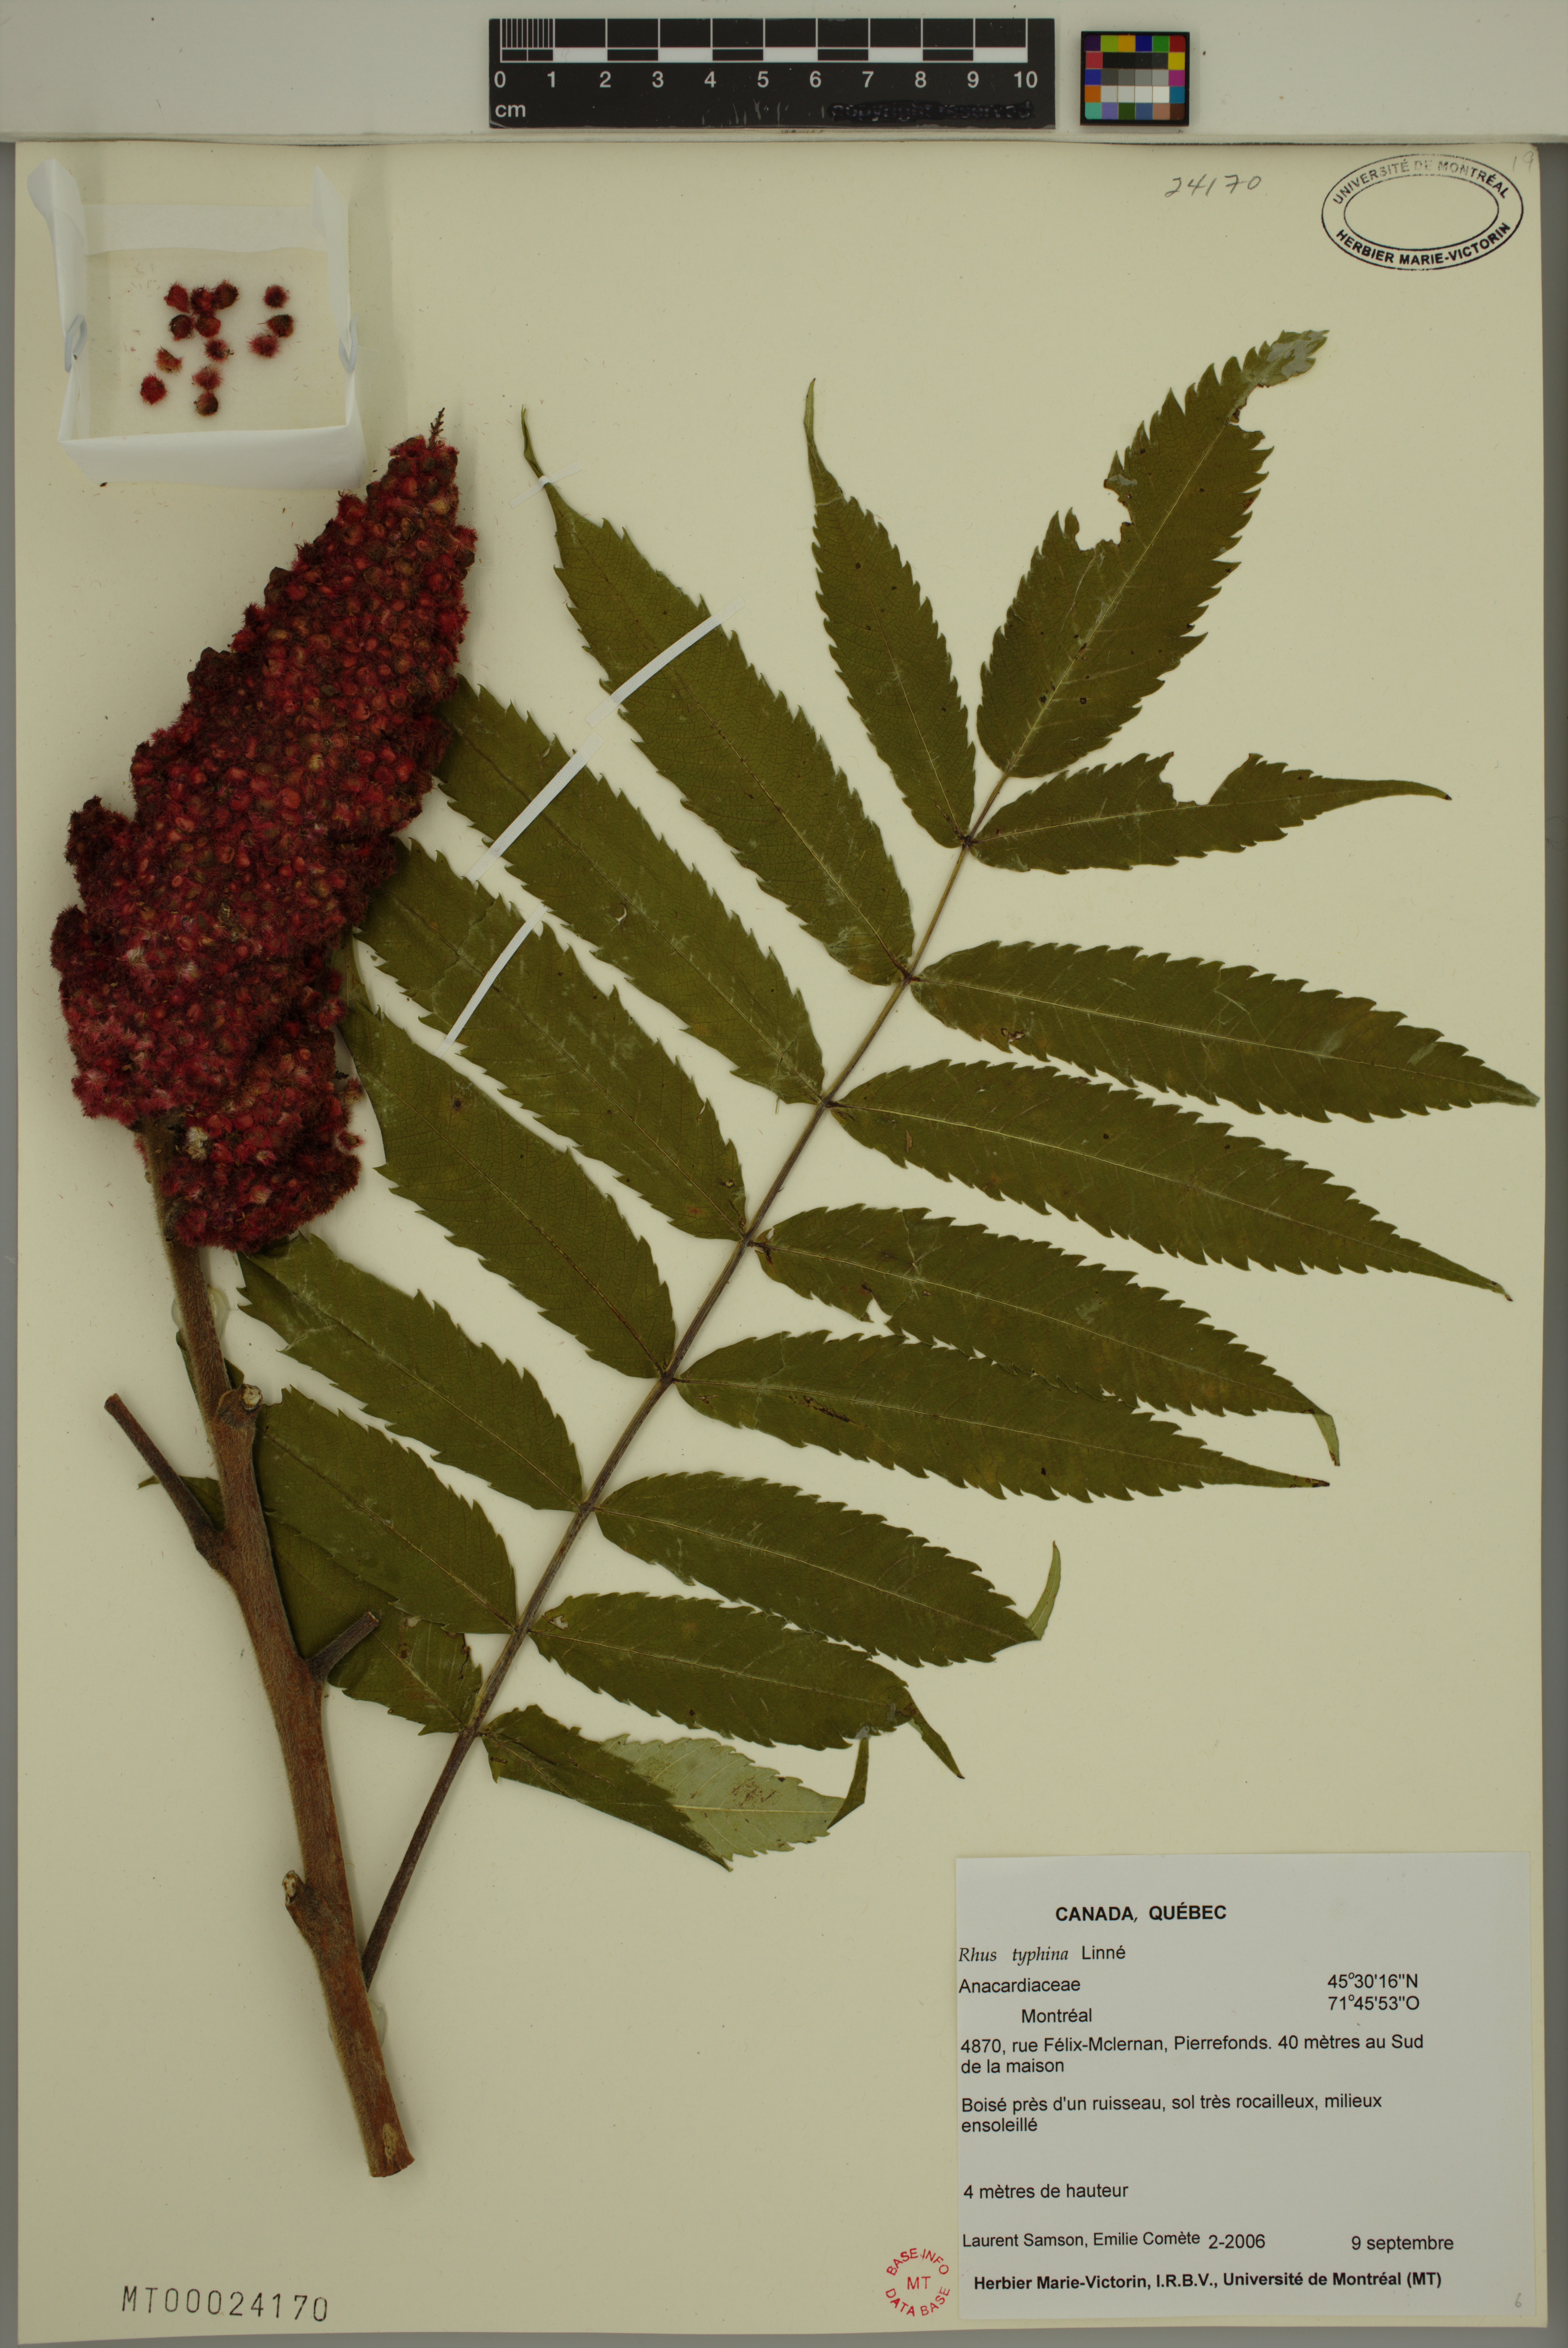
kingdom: Plantae
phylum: Tracheophyta
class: Magnoliopsida
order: Sapindales
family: Anacardiaceae
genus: Rhus
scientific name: Rhus typhina
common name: Staghorn sumac
